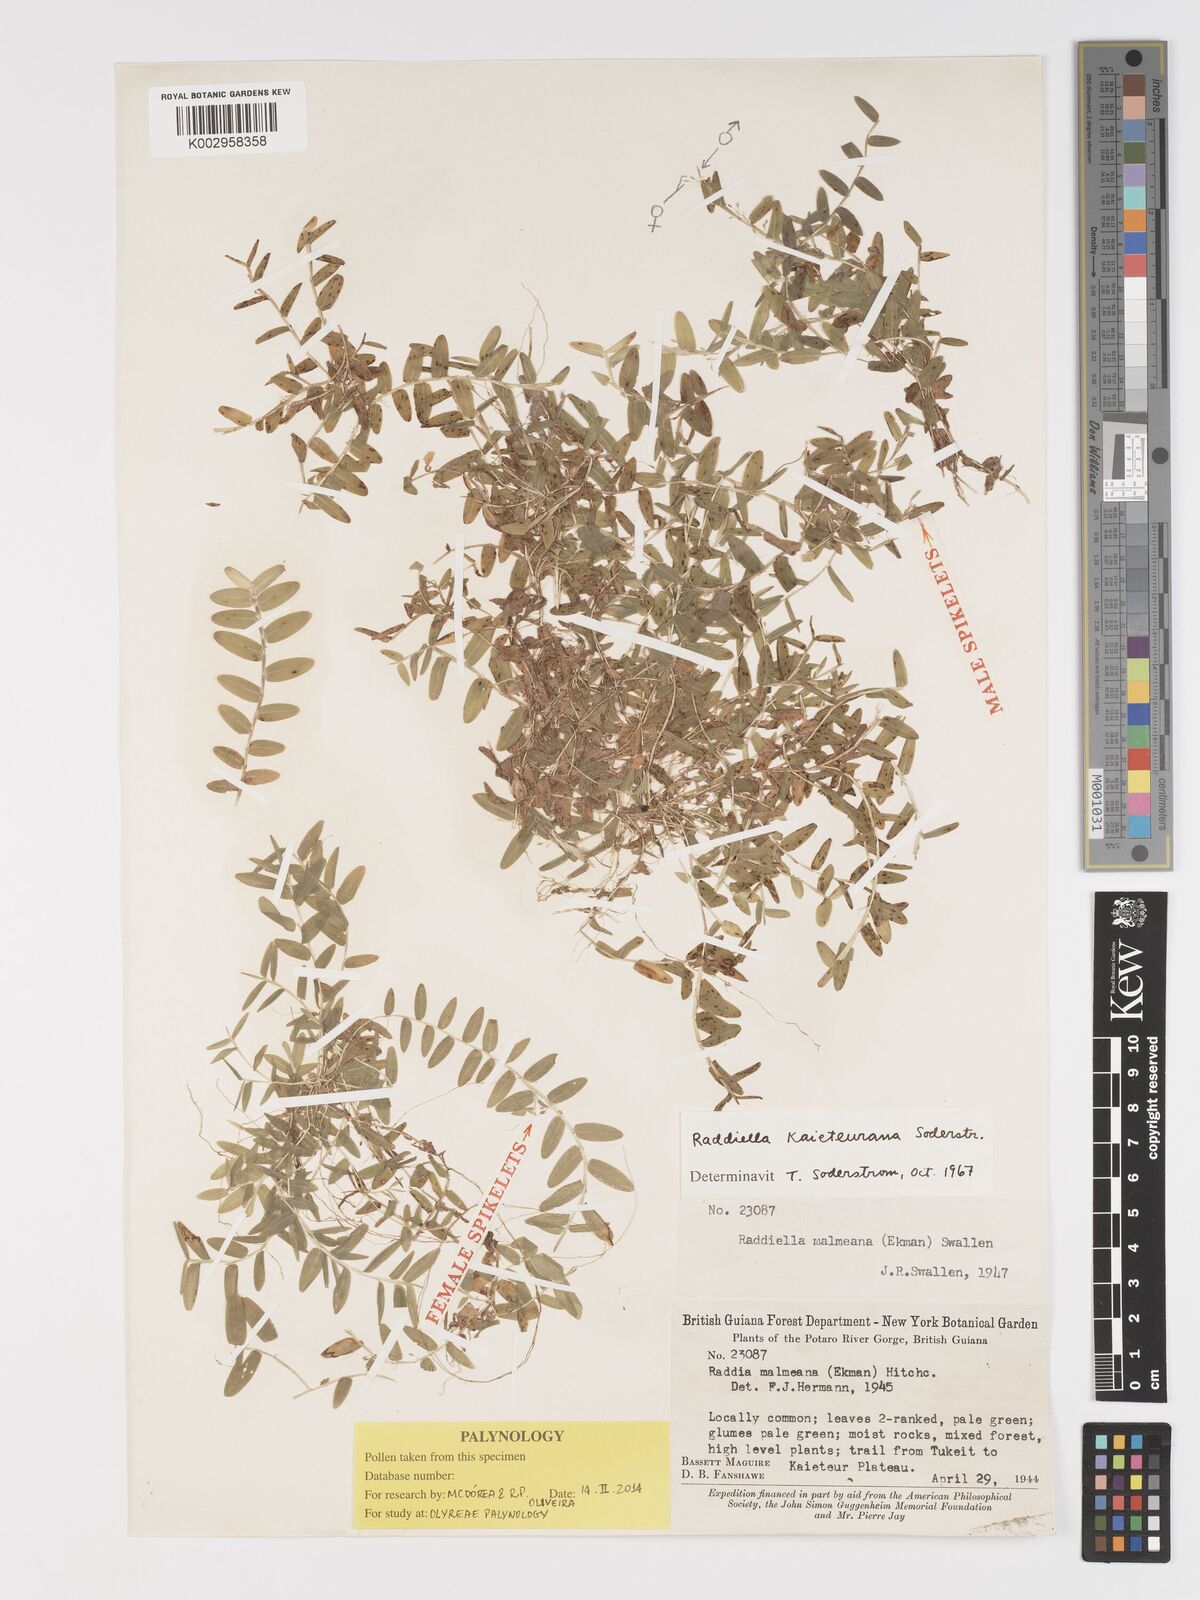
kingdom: Plantae
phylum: Tracheophyta
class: Liliopsida
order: Poales
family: Poaceae
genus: Raddiella
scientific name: Raddiella kaieteurana
